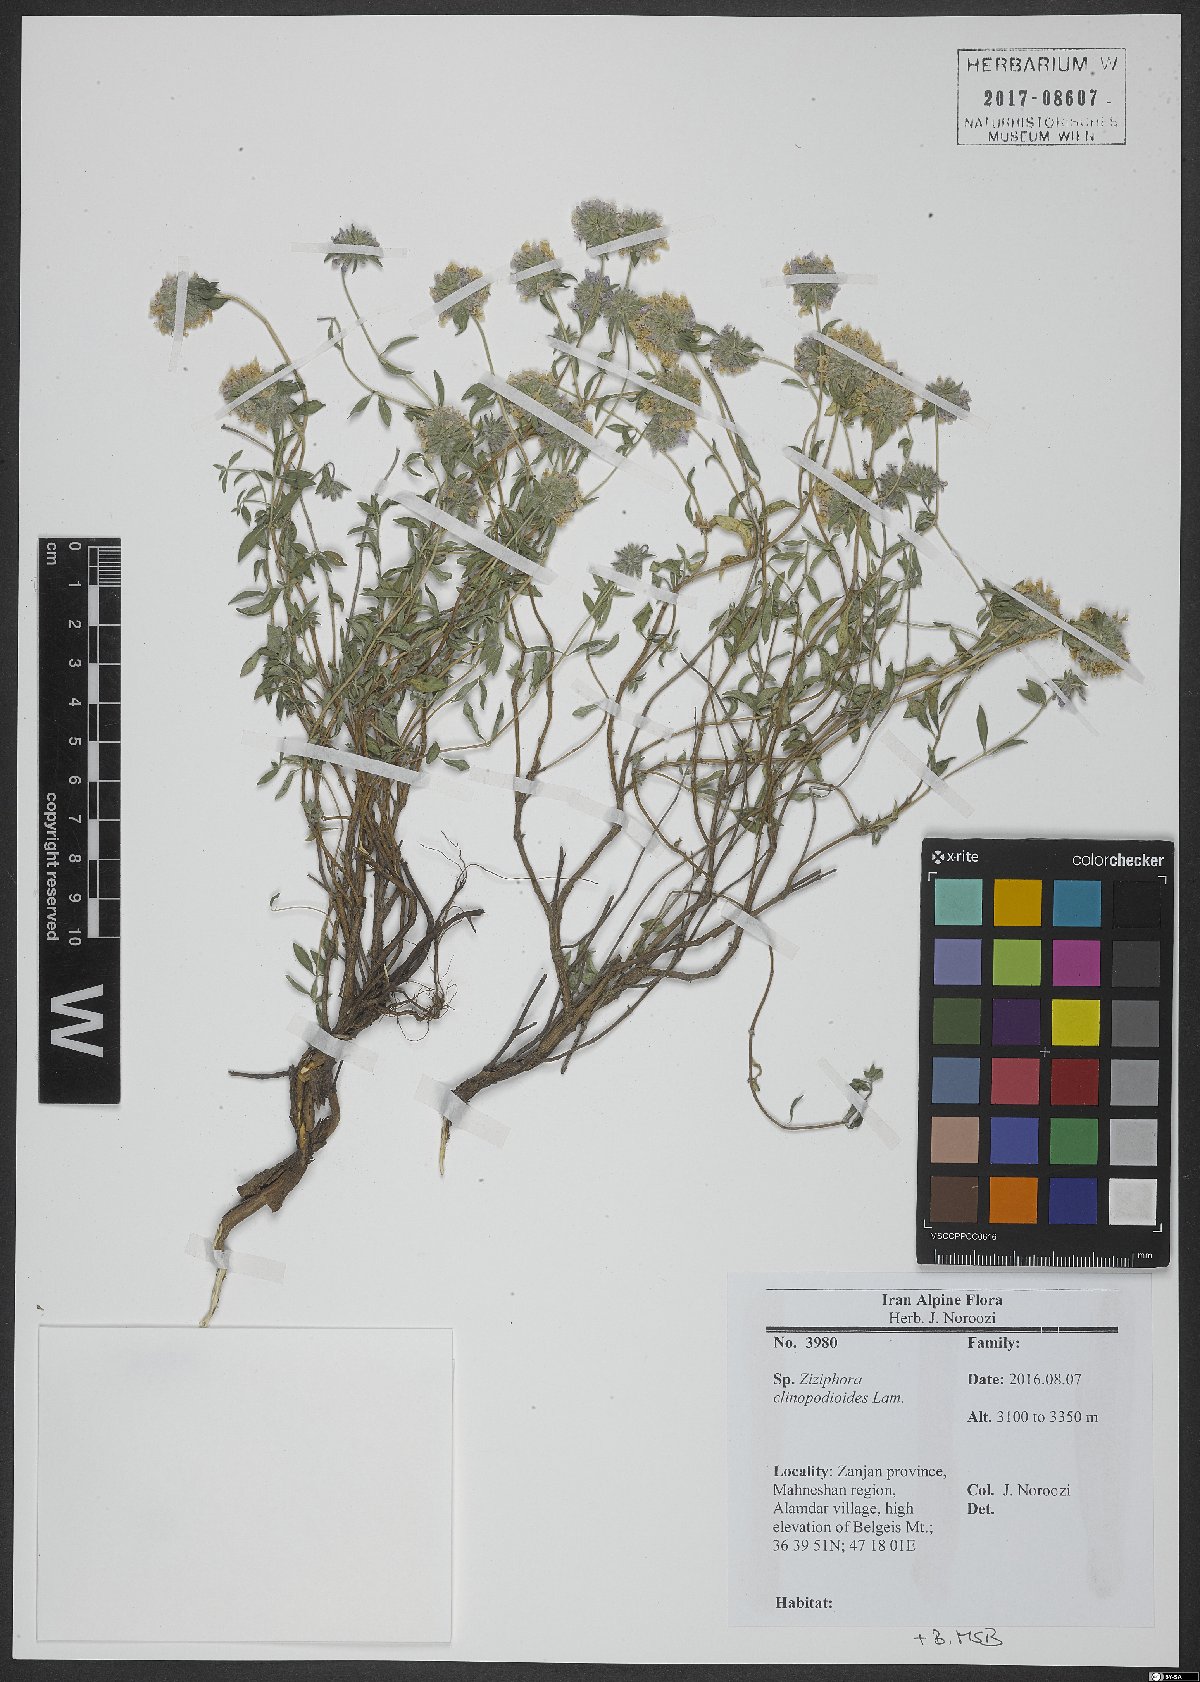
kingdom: Plantae
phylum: Tracheophyta
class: Magnoliopsida
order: Lamiales
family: Lamiaceae
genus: Ziziphora
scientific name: Ziziphora clinopodioides
